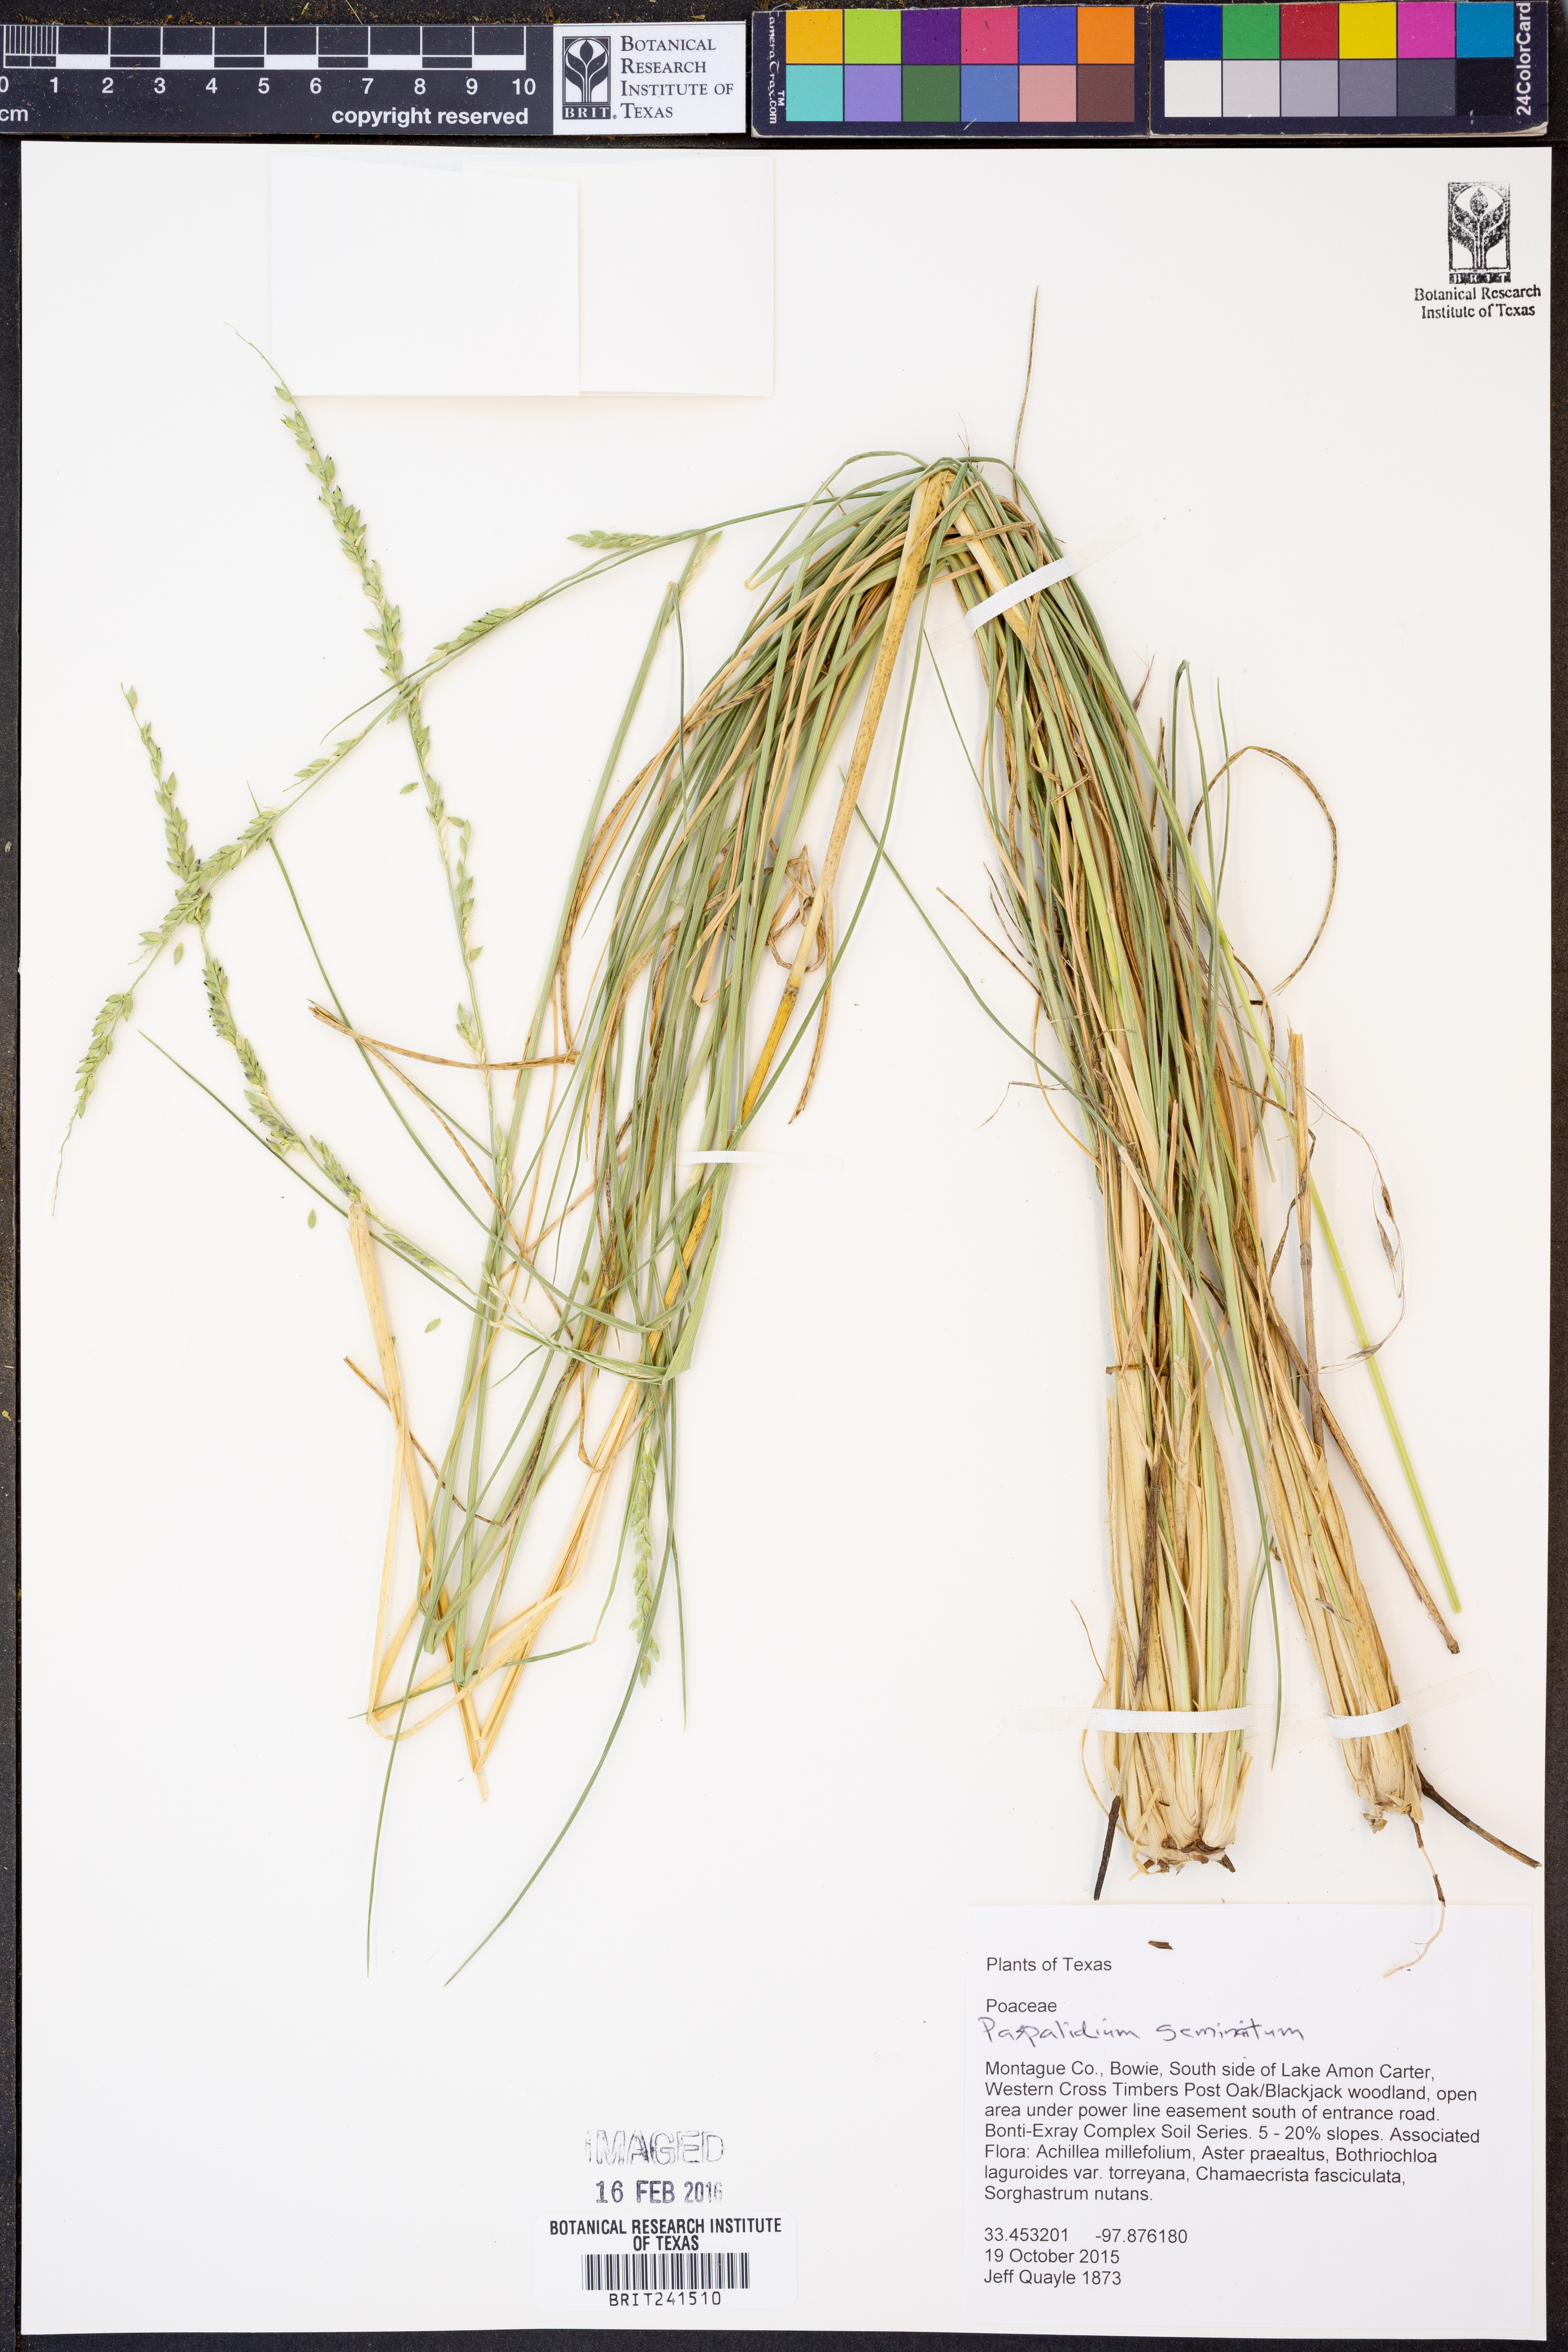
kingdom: Plantae
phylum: Tracheophyta
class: Liliopsida
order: Poales
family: Poaceae
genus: Setaria
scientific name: Setaria
